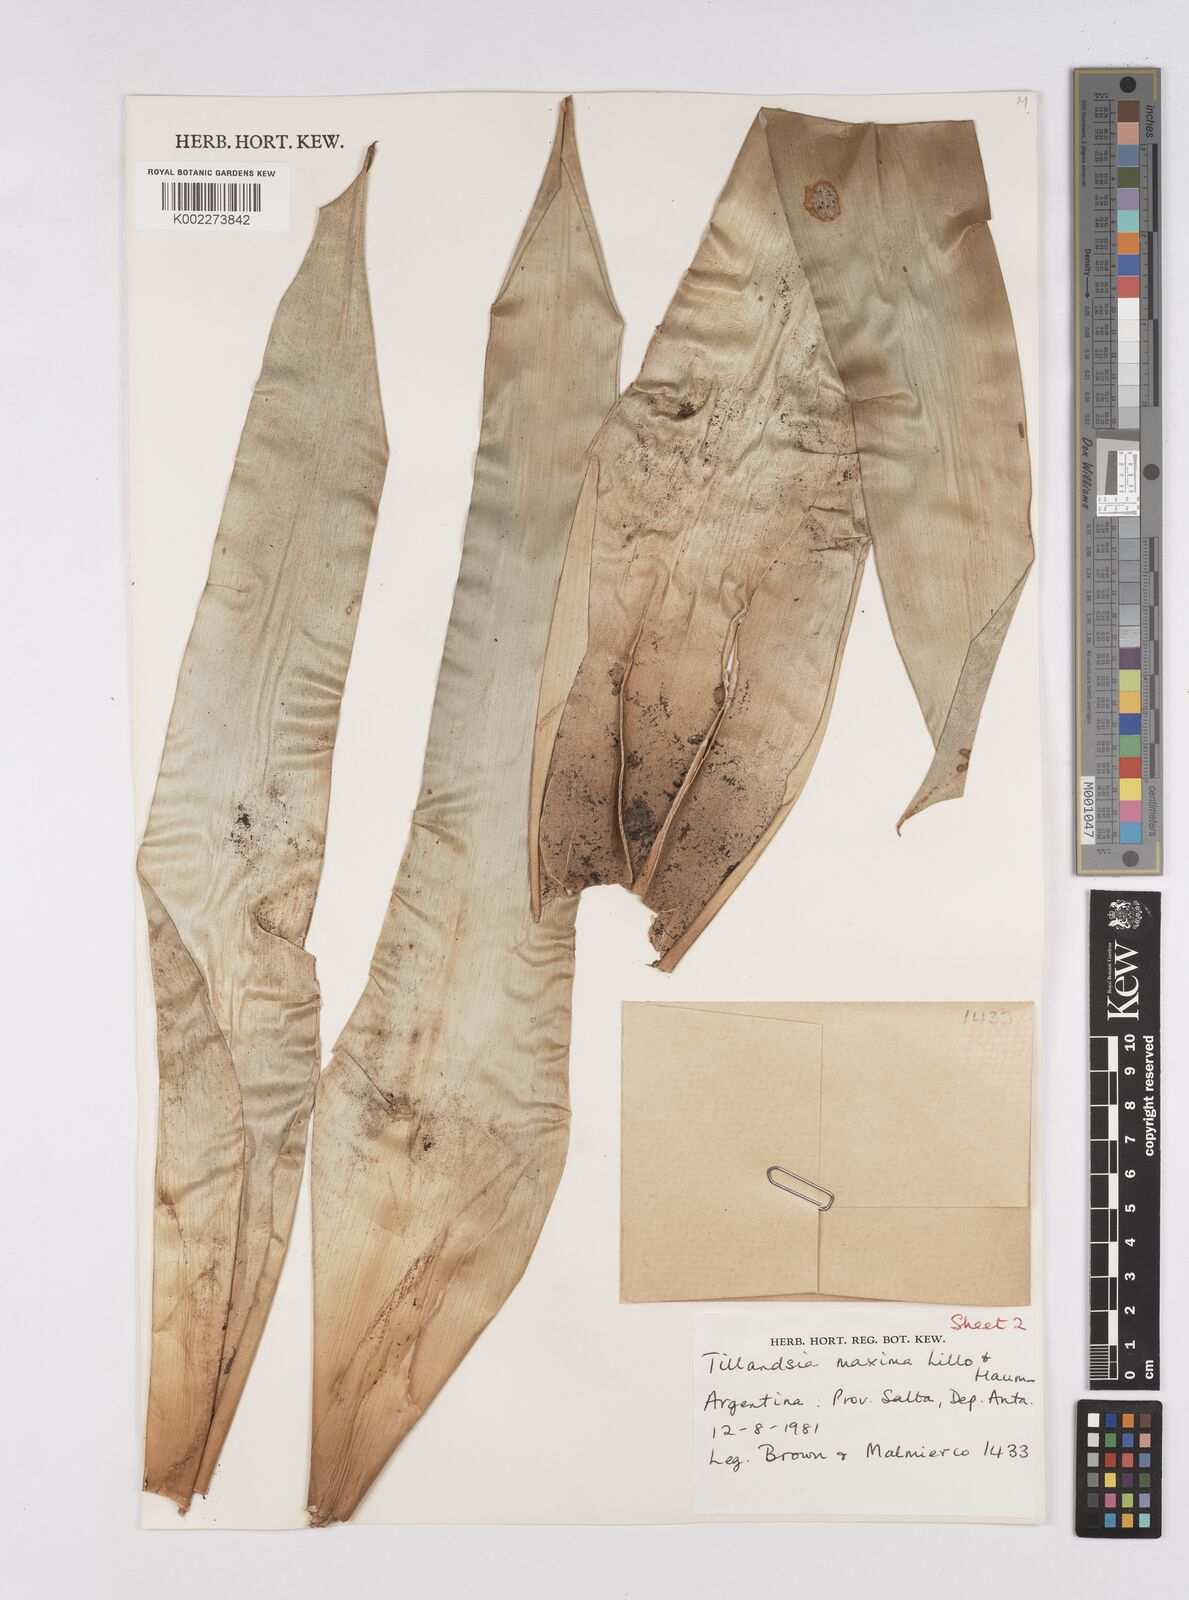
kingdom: Plantae
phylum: Tracheophyta
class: Liliopsida
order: Poales
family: Bromeliaceae
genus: Tillandsia
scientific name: Tillandsia australis
